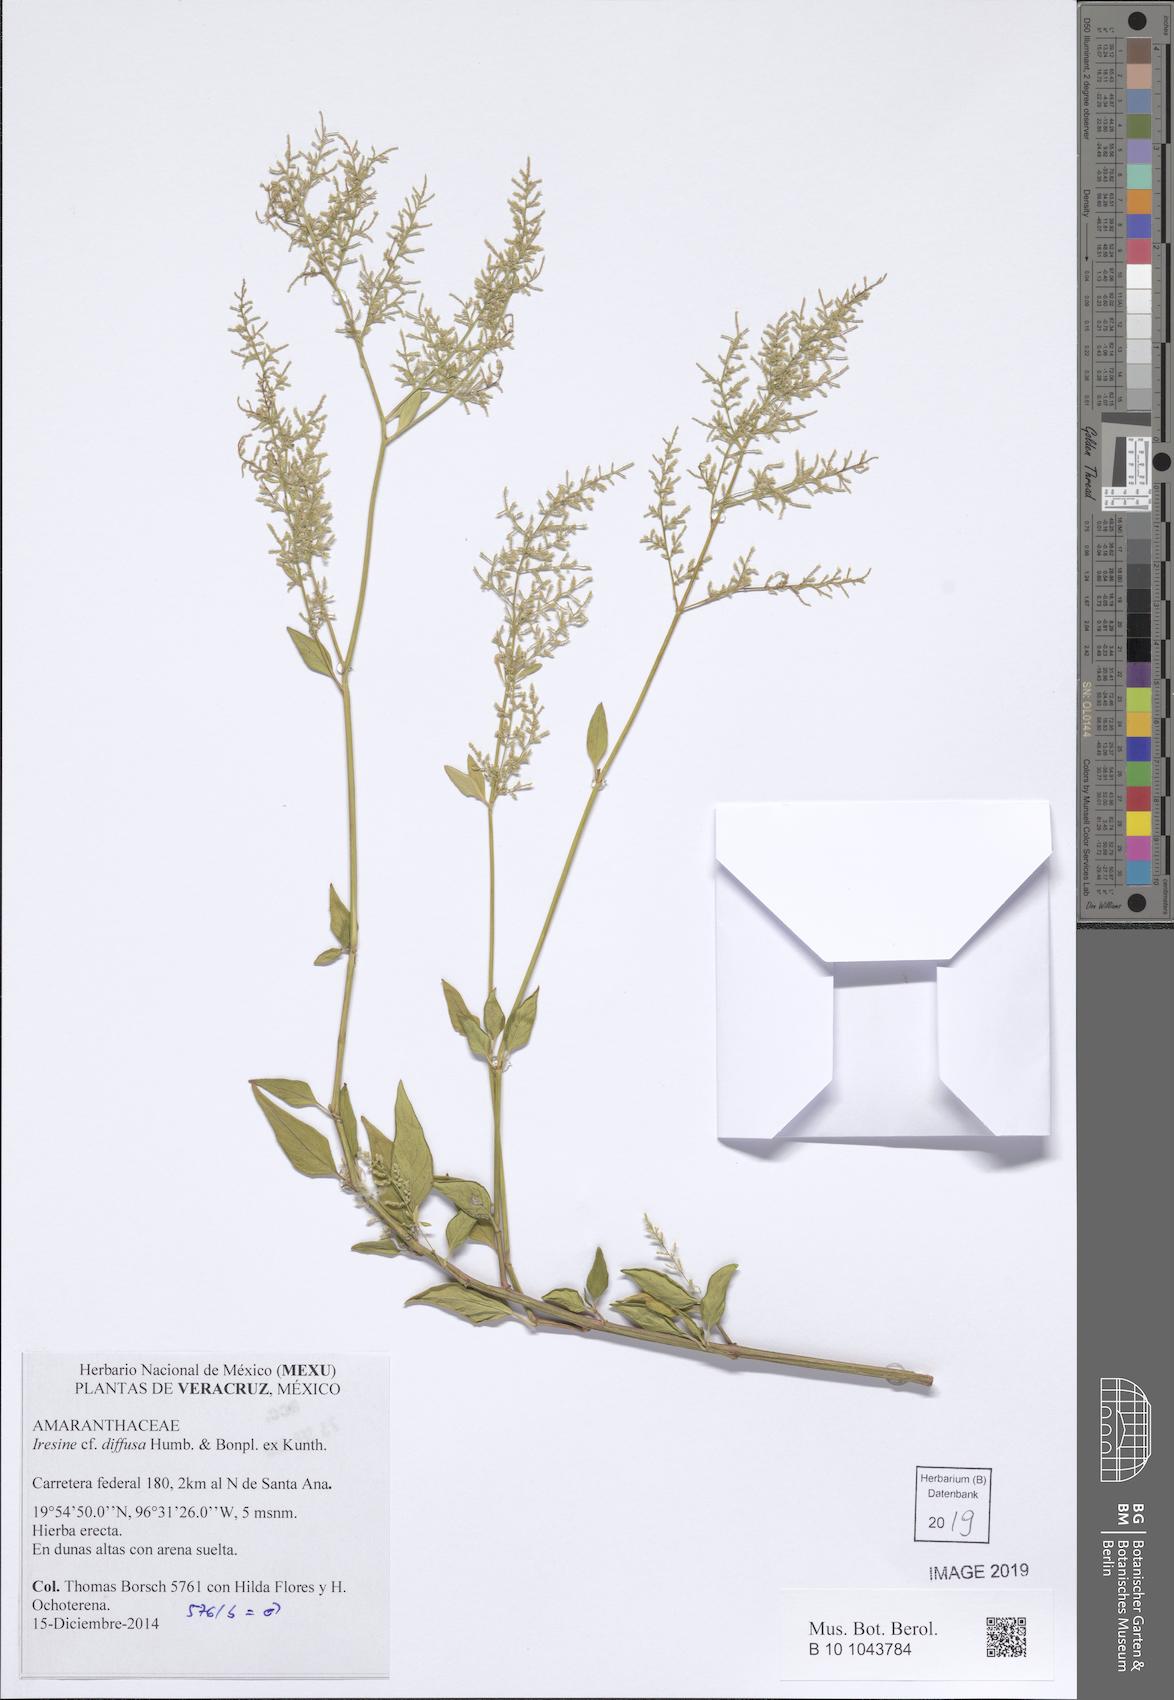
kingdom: Plantae
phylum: Tracheophyta
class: Magnoliopsida
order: Caryophyllales
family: Amaranthaceae
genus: Iresine
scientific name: Iresine diffusa
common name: Juba's-bush
